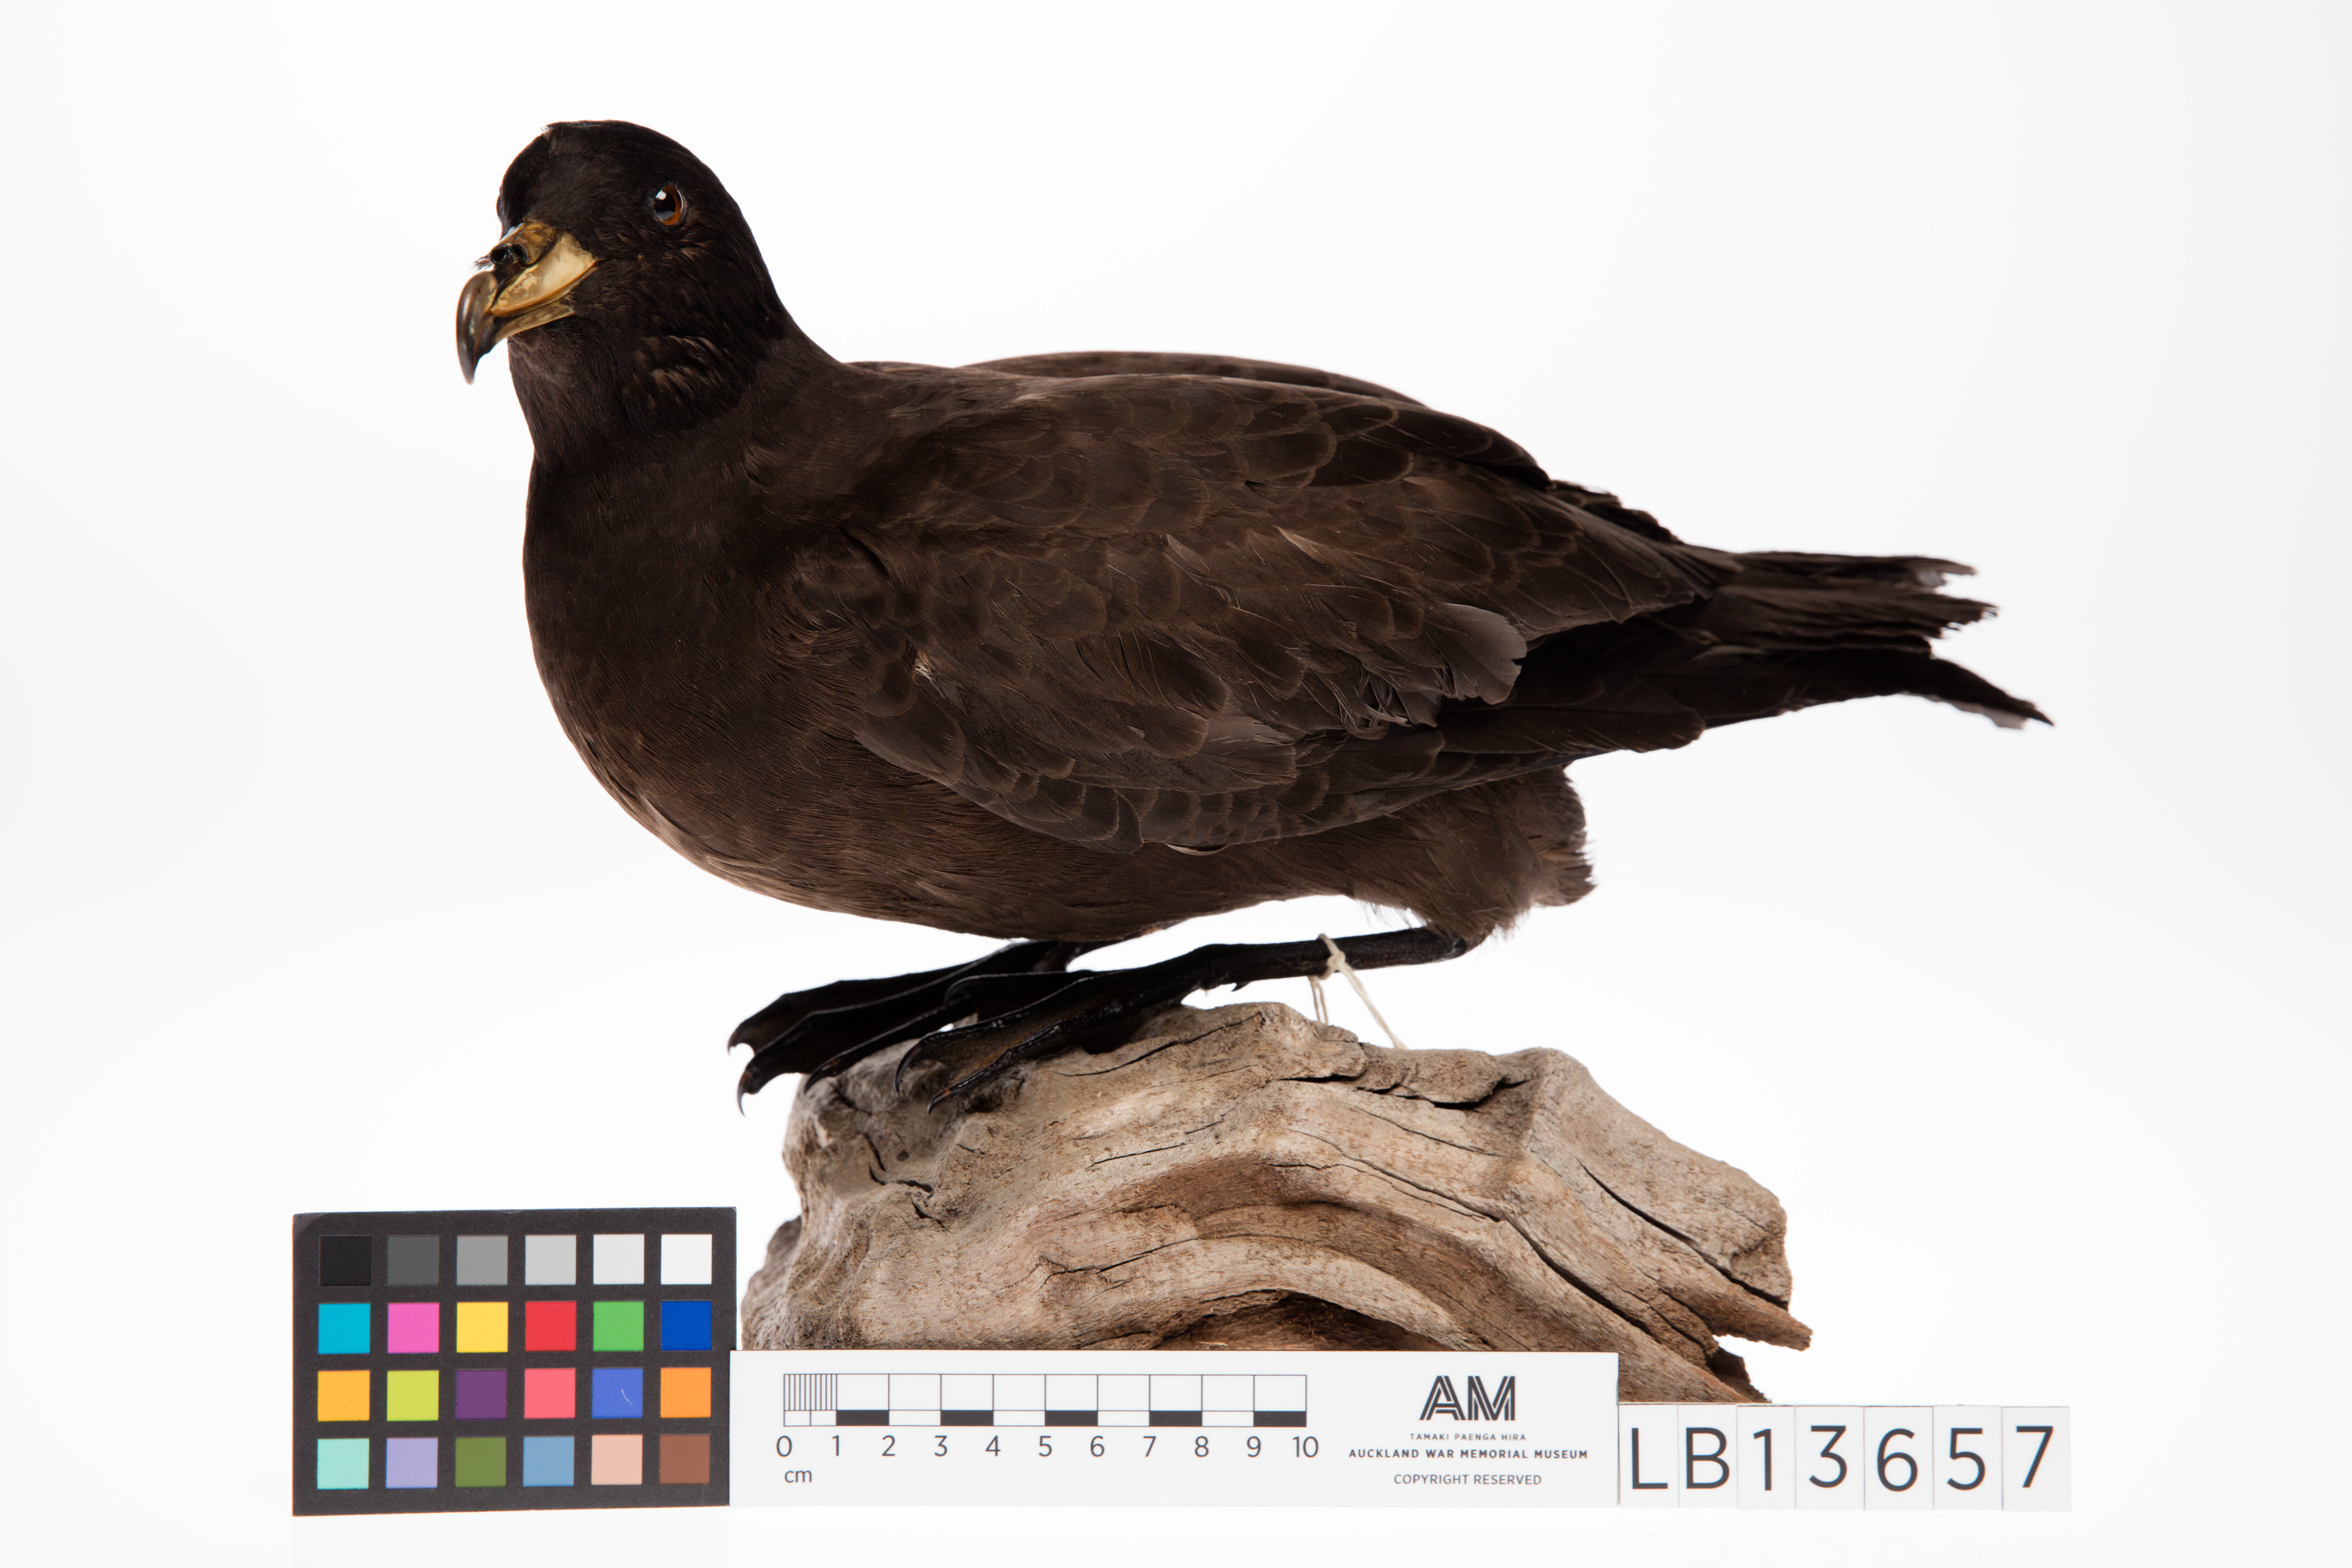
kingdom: Animalia
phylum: Chordata
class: Aves
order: Procellariiformes
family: Procellariidae
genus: Procellaria
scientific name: Procellaria parkinsoni
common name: Black petrel
